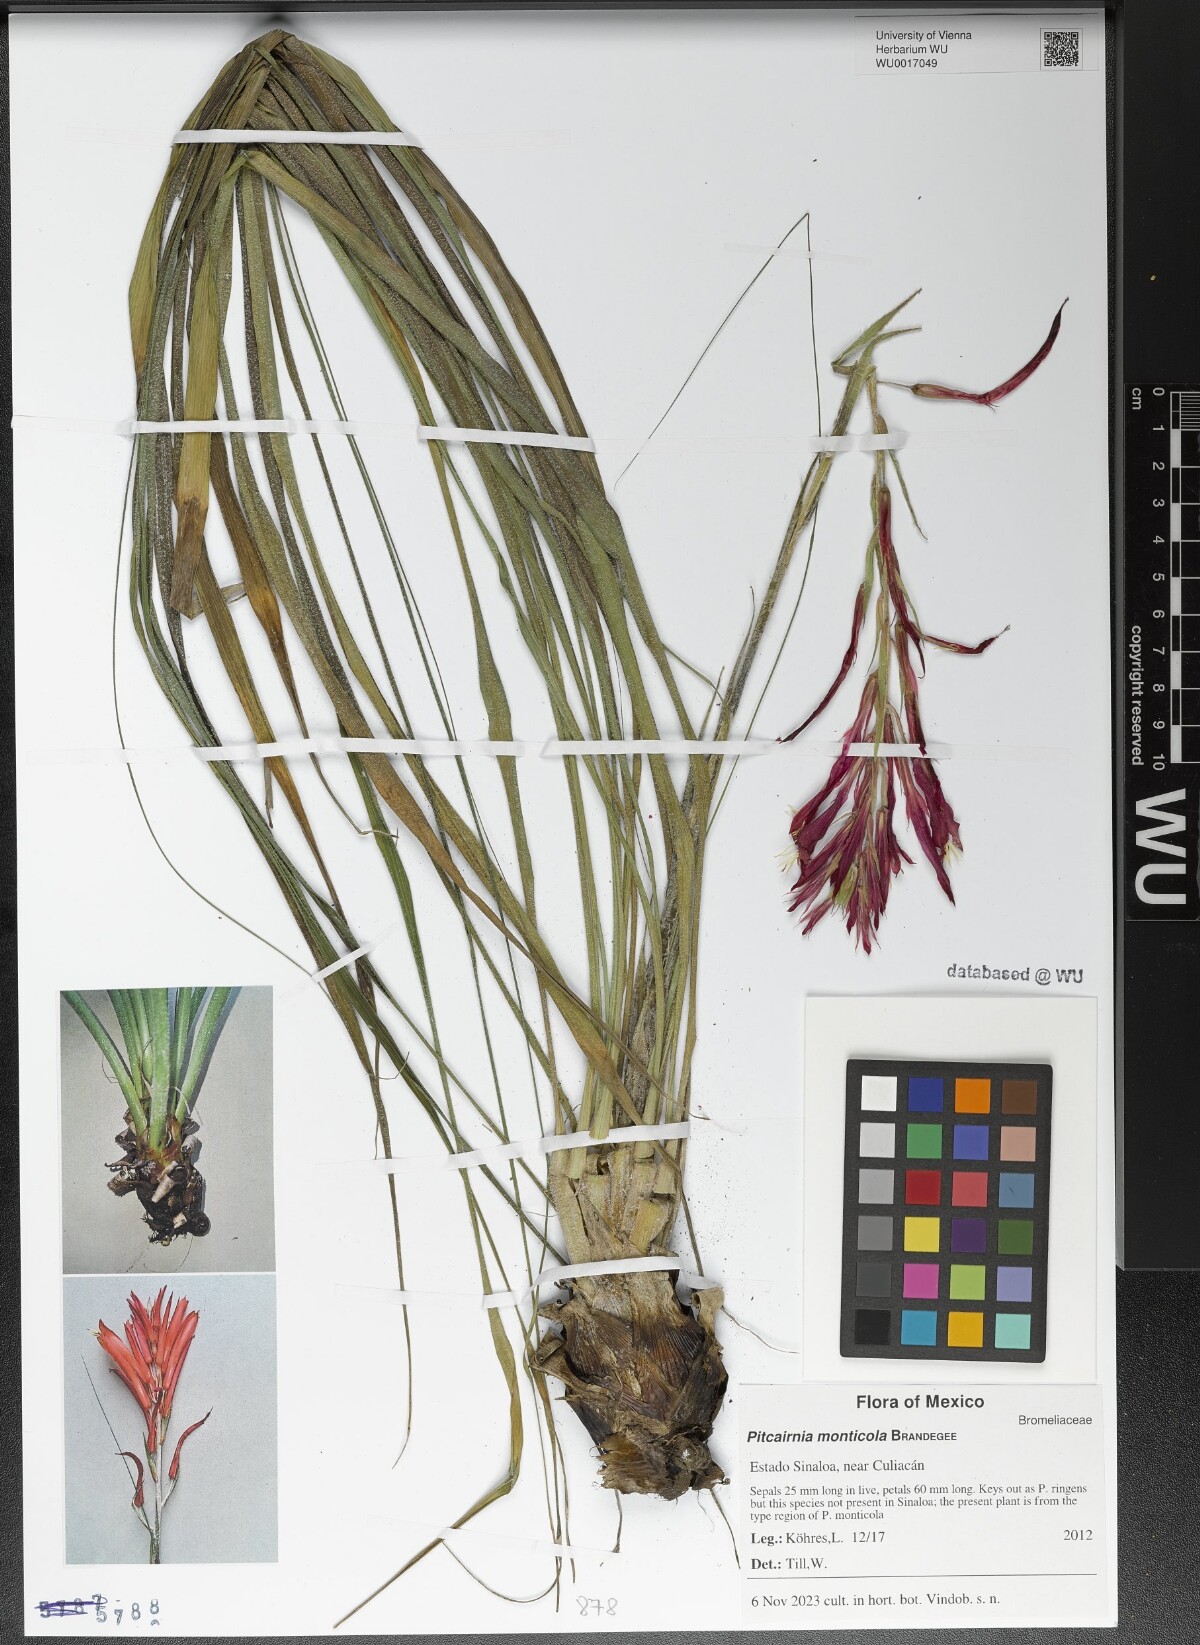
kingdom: Plantae
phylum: Tracheophyta
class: Liliopsida
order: Poales
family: Bromeliaceae
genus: Pitcairnia
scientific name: Pitcairnia monticola
